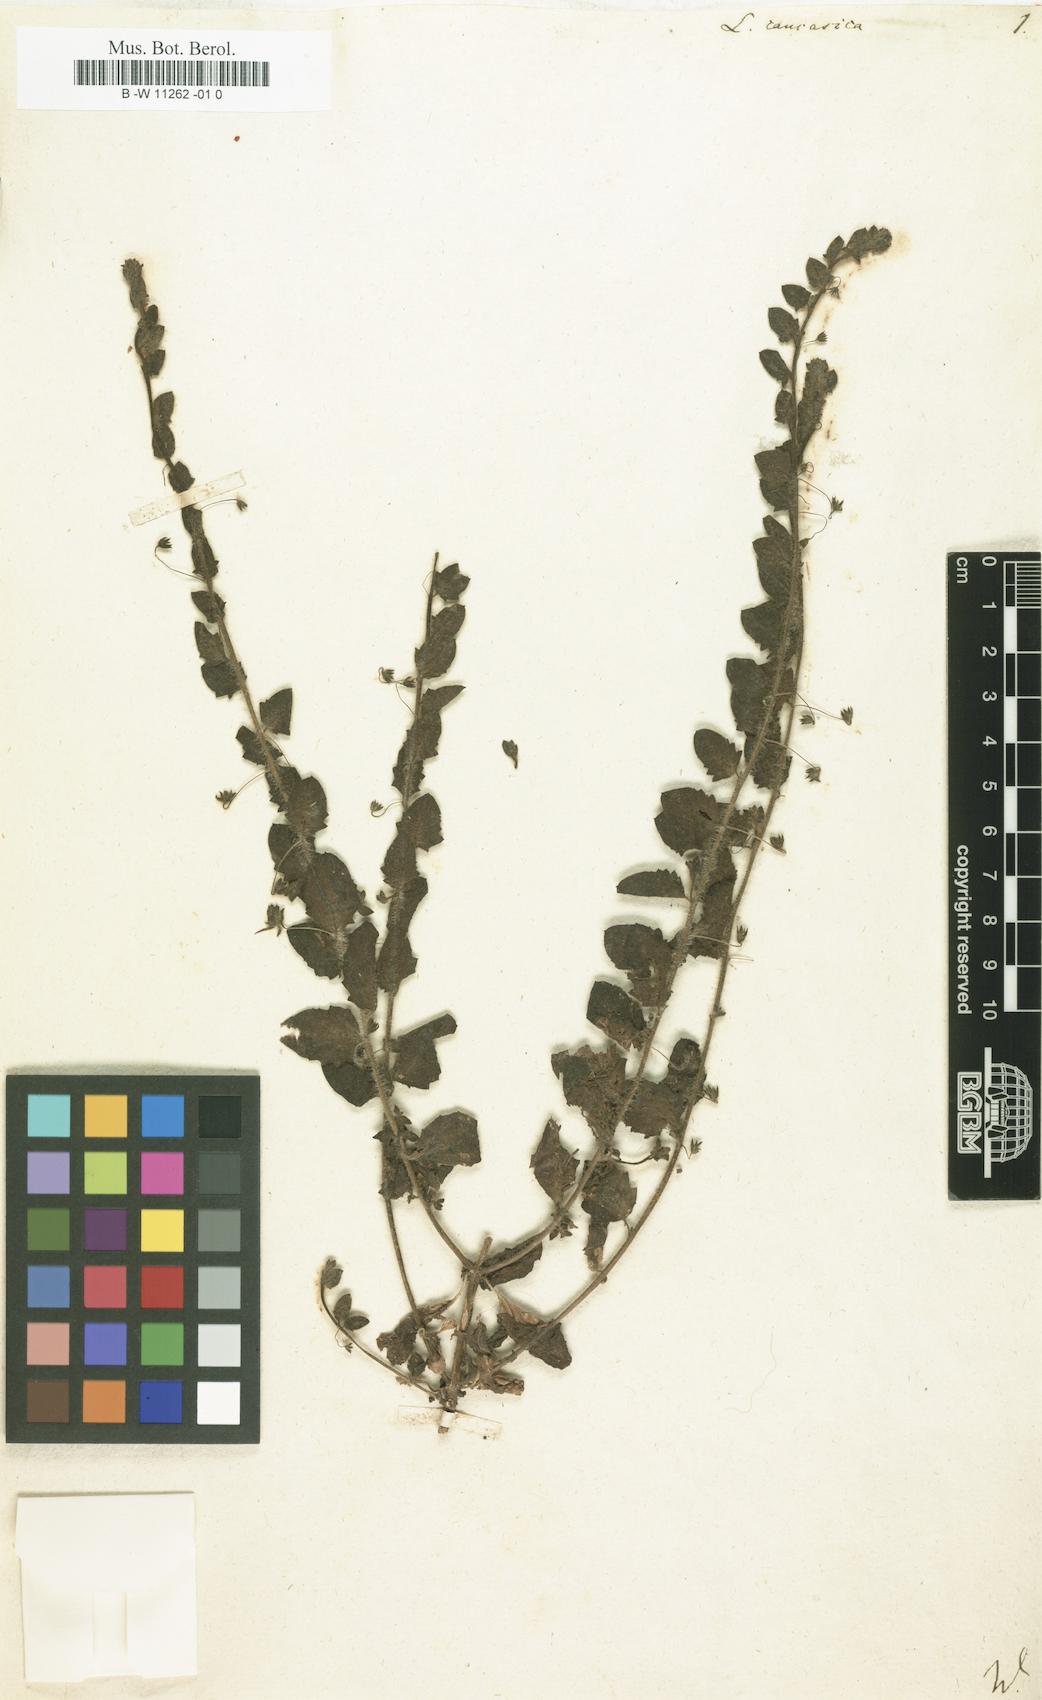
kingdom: Plantae
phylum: Tracheophyta
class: Magnoliopsida
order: Lamiales
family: Plantaginaceae
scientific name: Plantaginaceae
